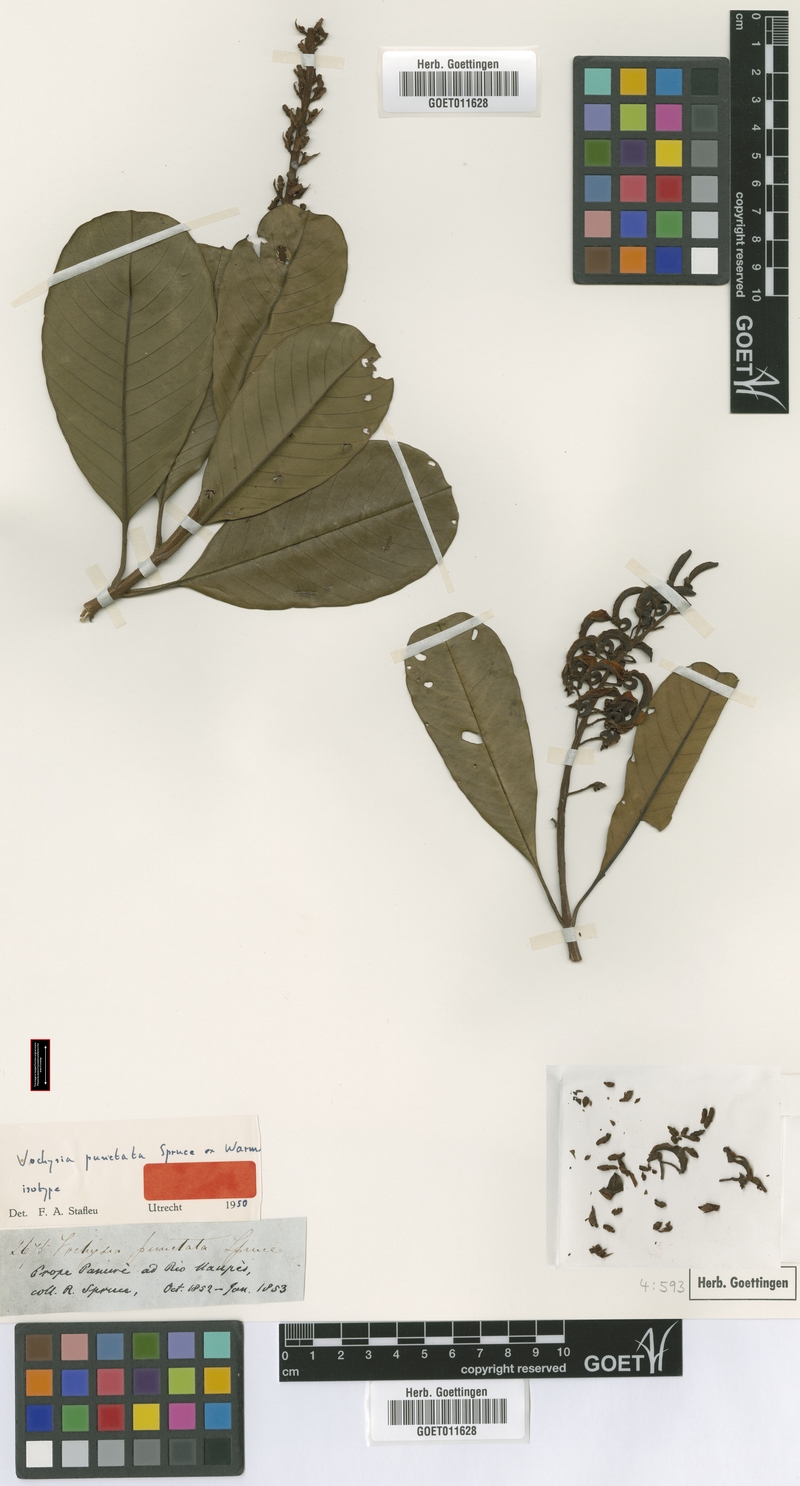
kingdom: Plantae
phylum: Tracheophyta
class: Magnoliopsida
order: Myrtales
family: Vochysiaceae
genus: Vochysia
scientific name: Vochysia punctata
